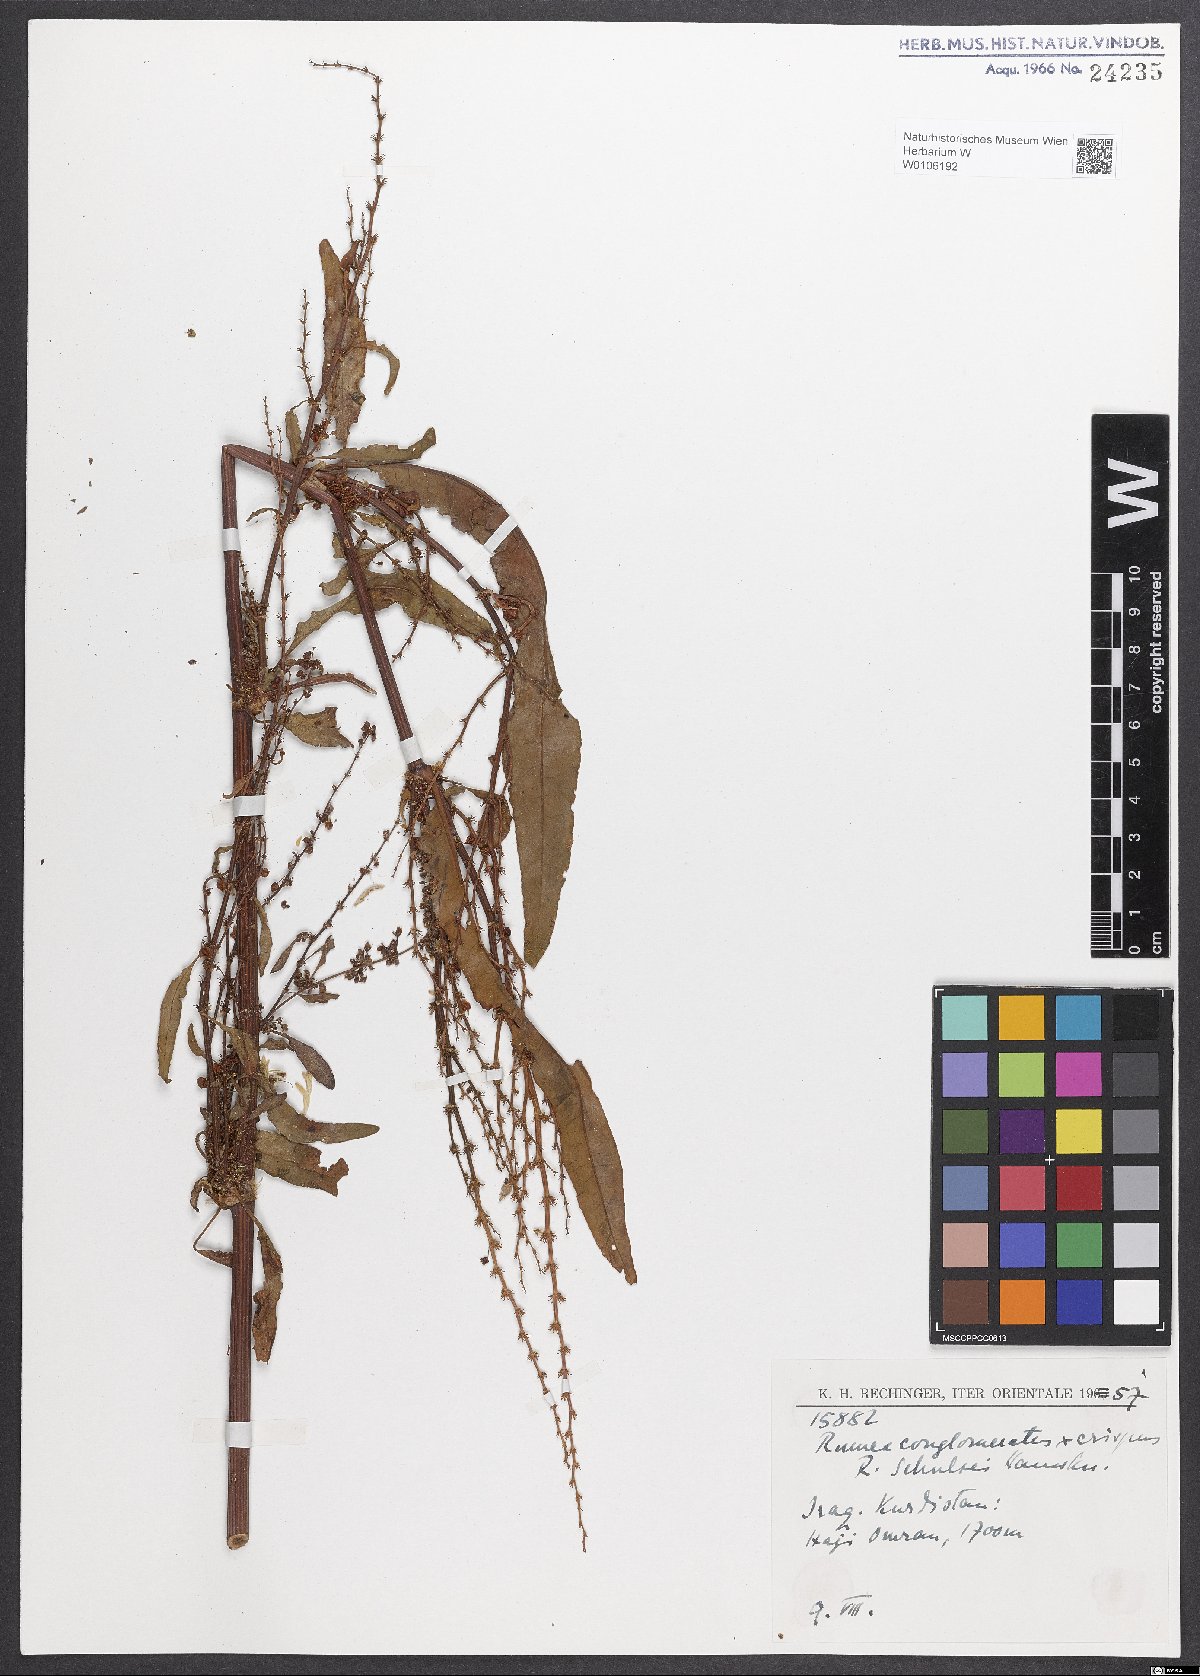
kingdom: Plantae
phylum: Tracheophyta
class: Magnoliopsida
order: Caryophyllales
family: Polygonaceae
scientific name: Polygonaceae
